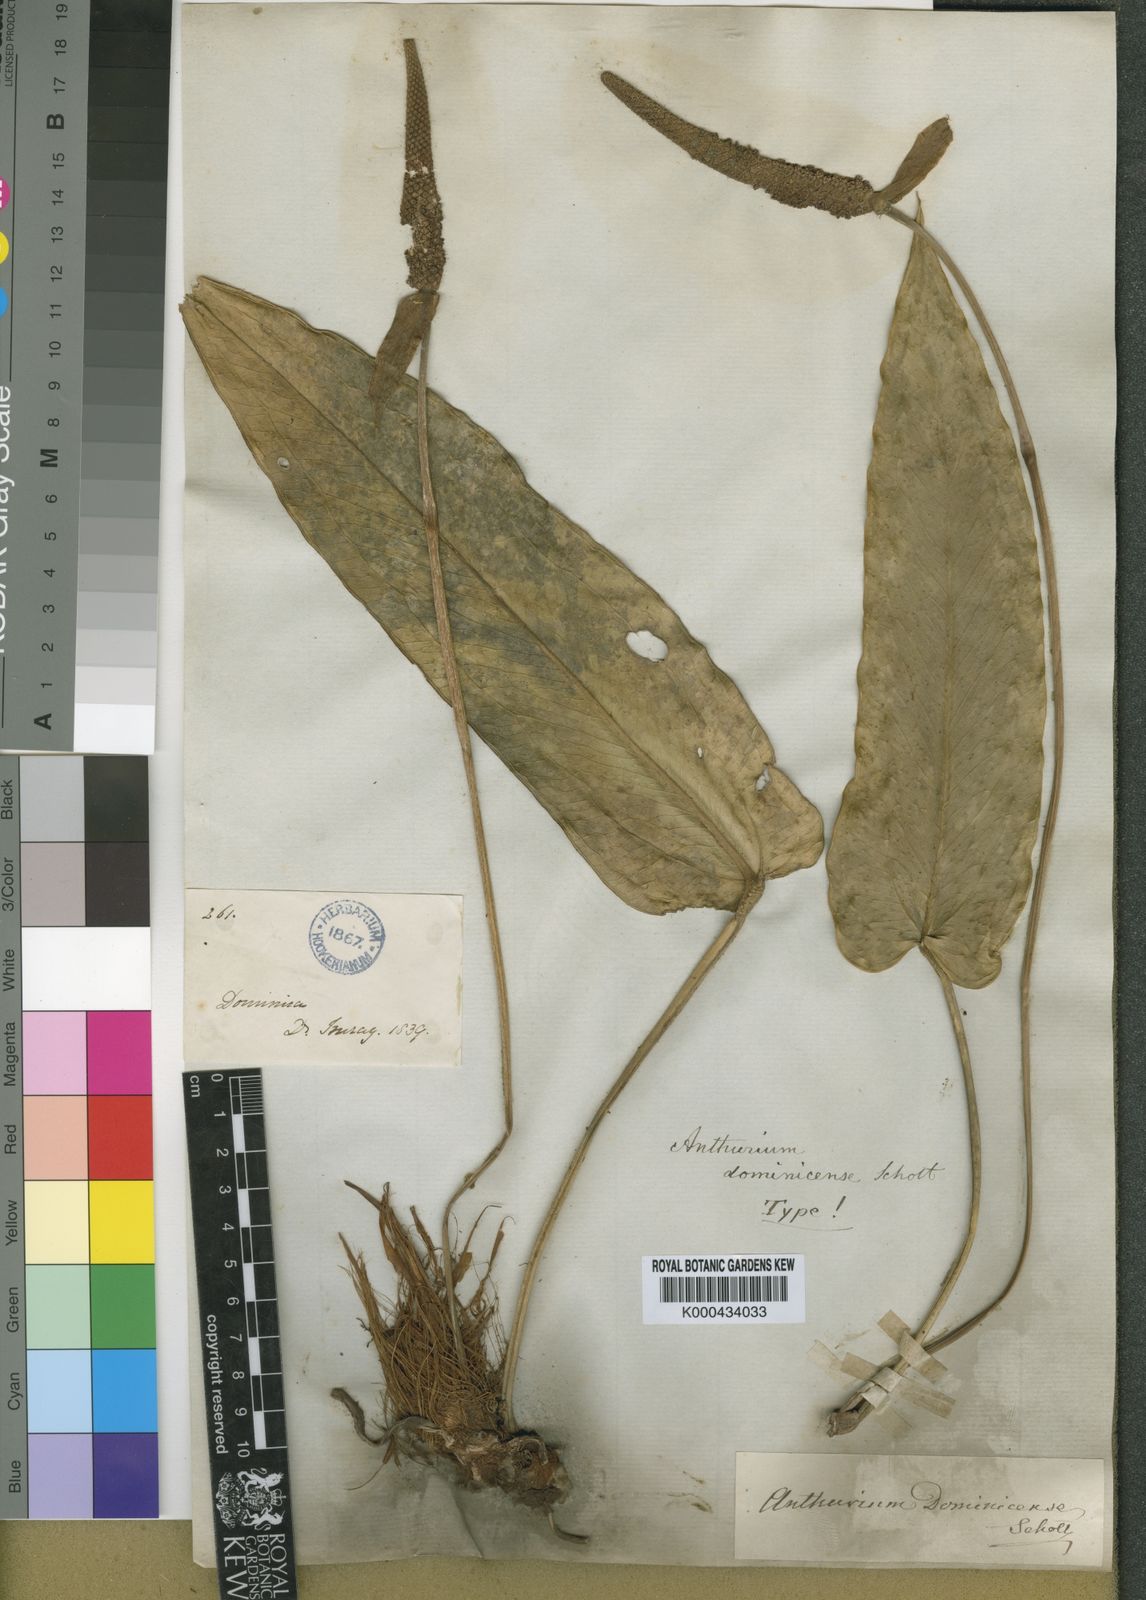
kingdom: Plantae
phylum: Tracheophyta
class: Liliopsida
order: Alismatales
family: Araceae
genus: Anthurium
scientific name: Anthurium dominicense
